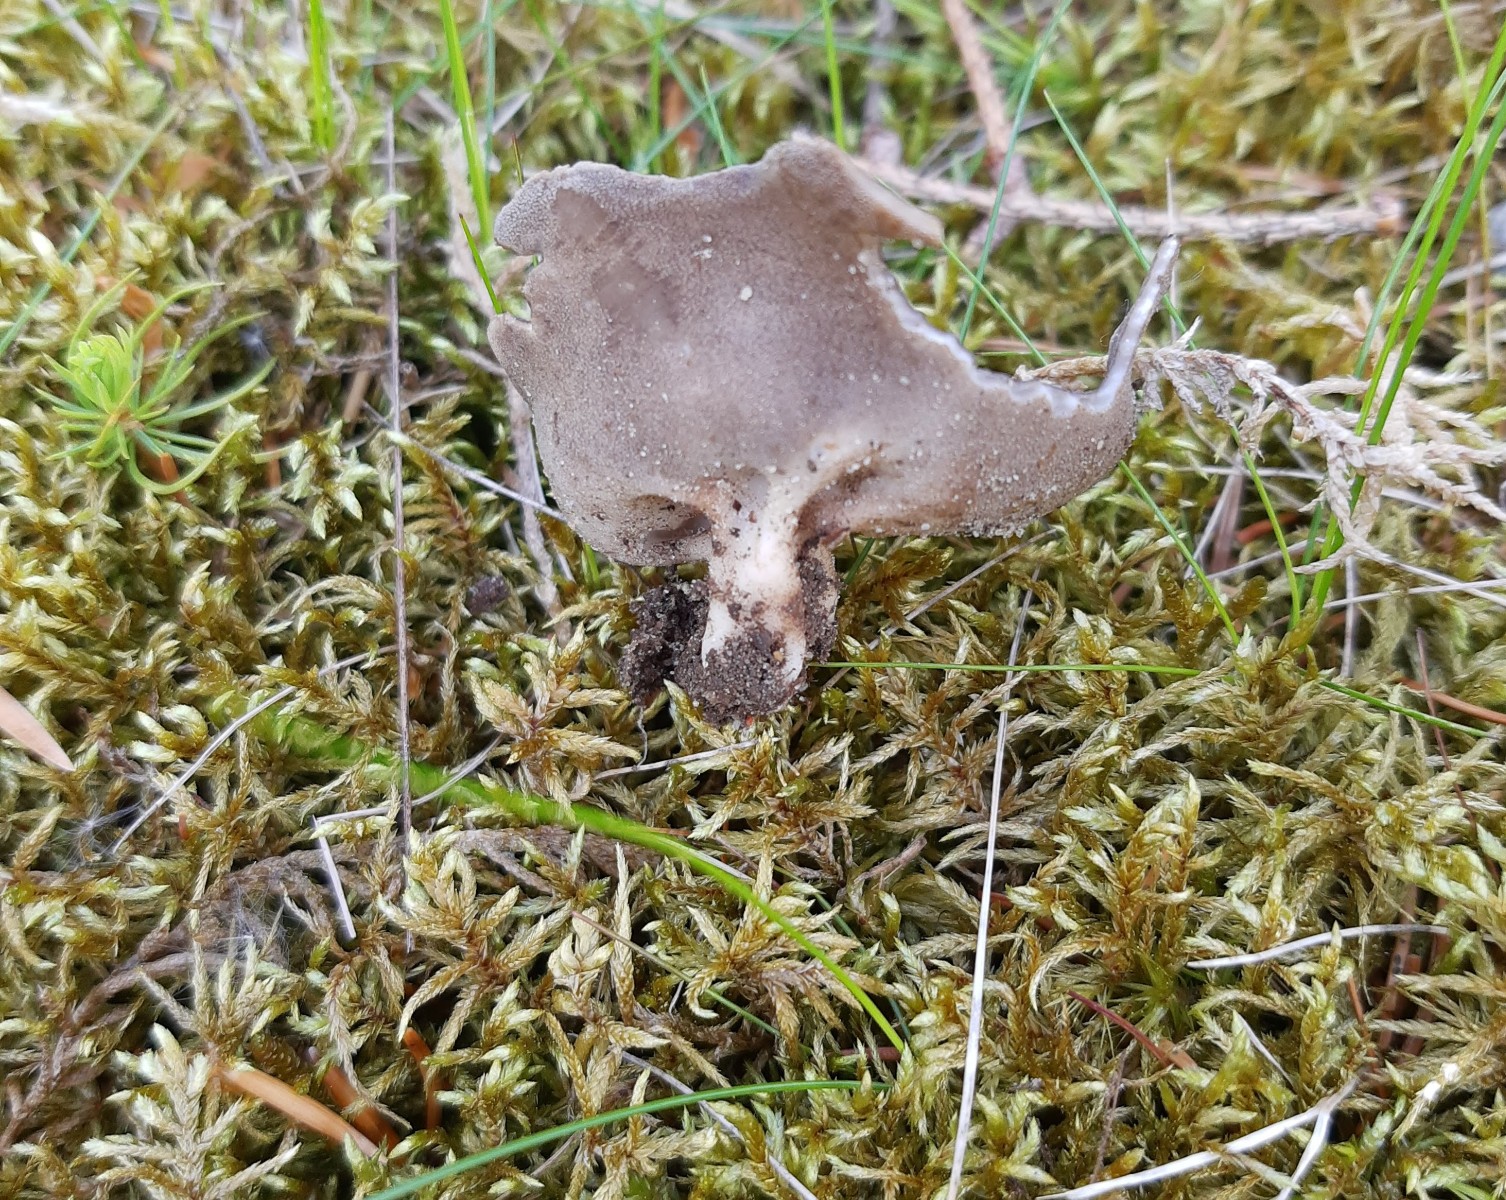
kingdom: Fungi
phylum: Ascomycota
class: Pezizomycetes
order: Pezizales
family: Helvellaceae
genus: Dissingia
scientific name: Dissingia confusa
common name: gran-foldhat
